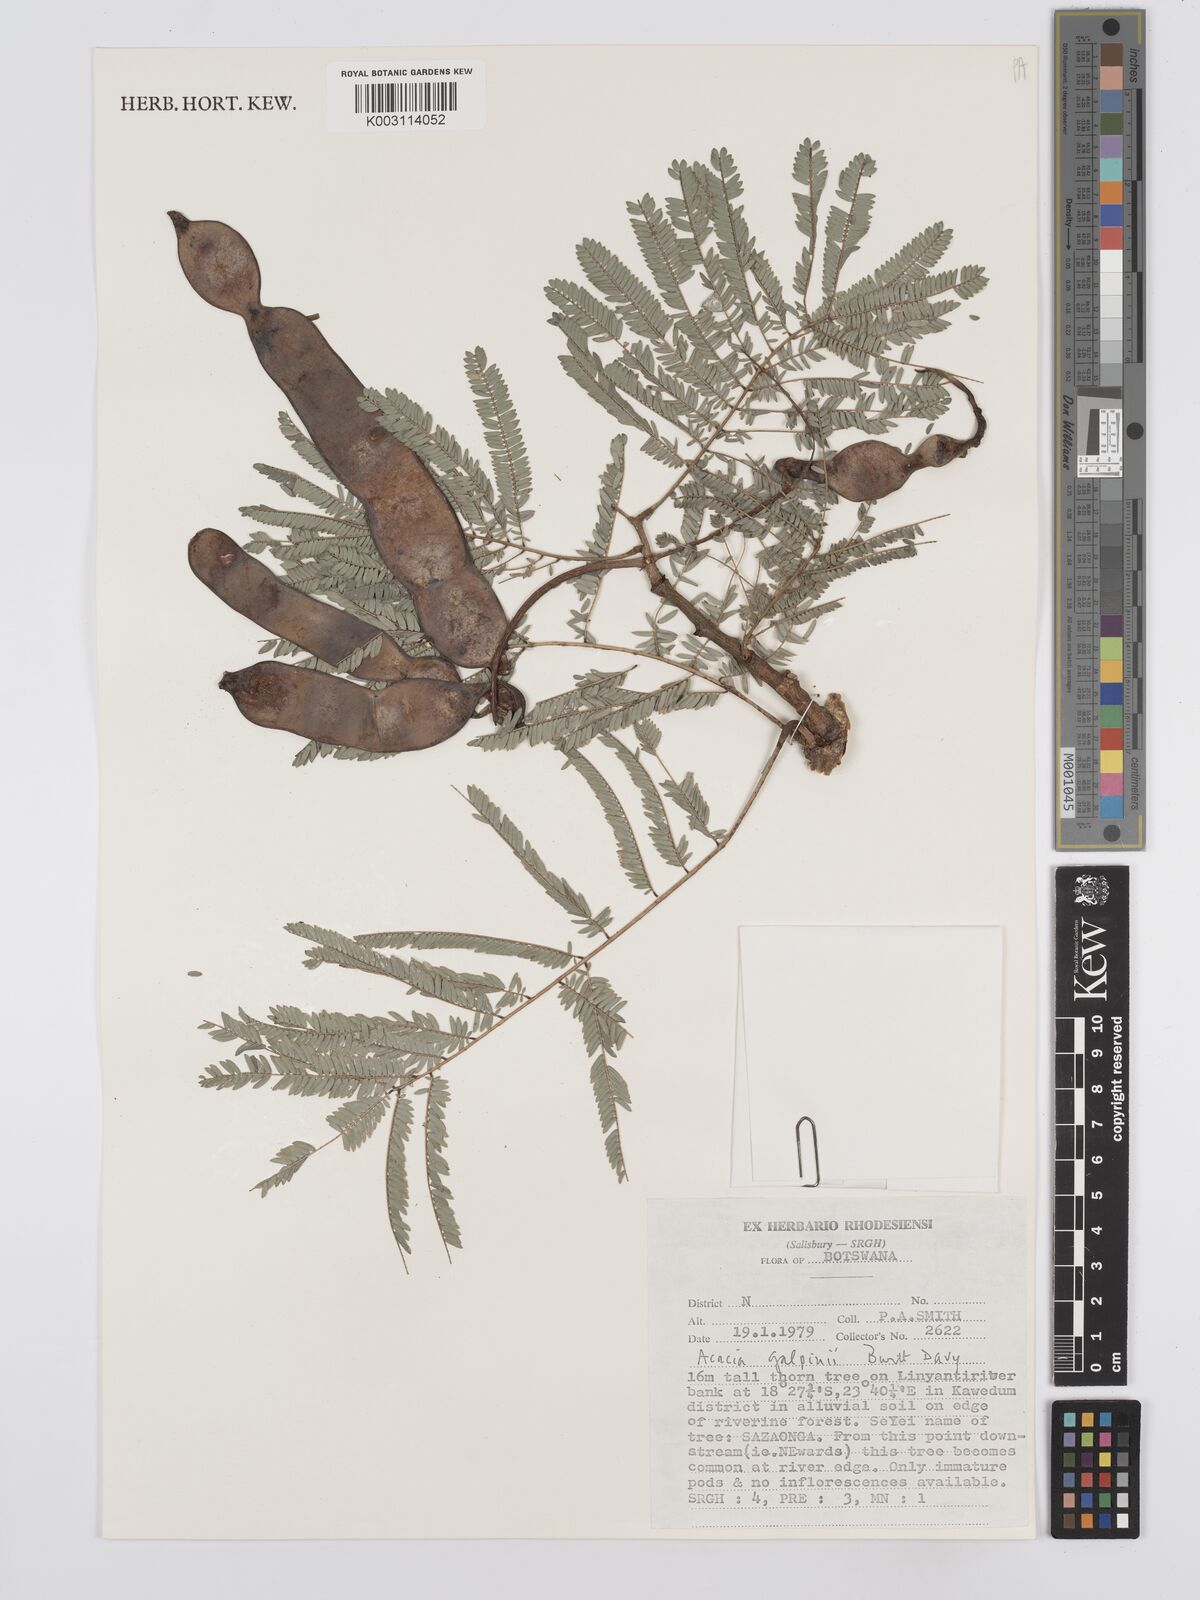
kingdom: Plantae
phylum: Tracheophyta
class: Magnoliopsida
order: Fabales
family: Fabaceae
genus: Senegalia
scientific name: Senegalia galpinii
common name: Monkey-thorn
